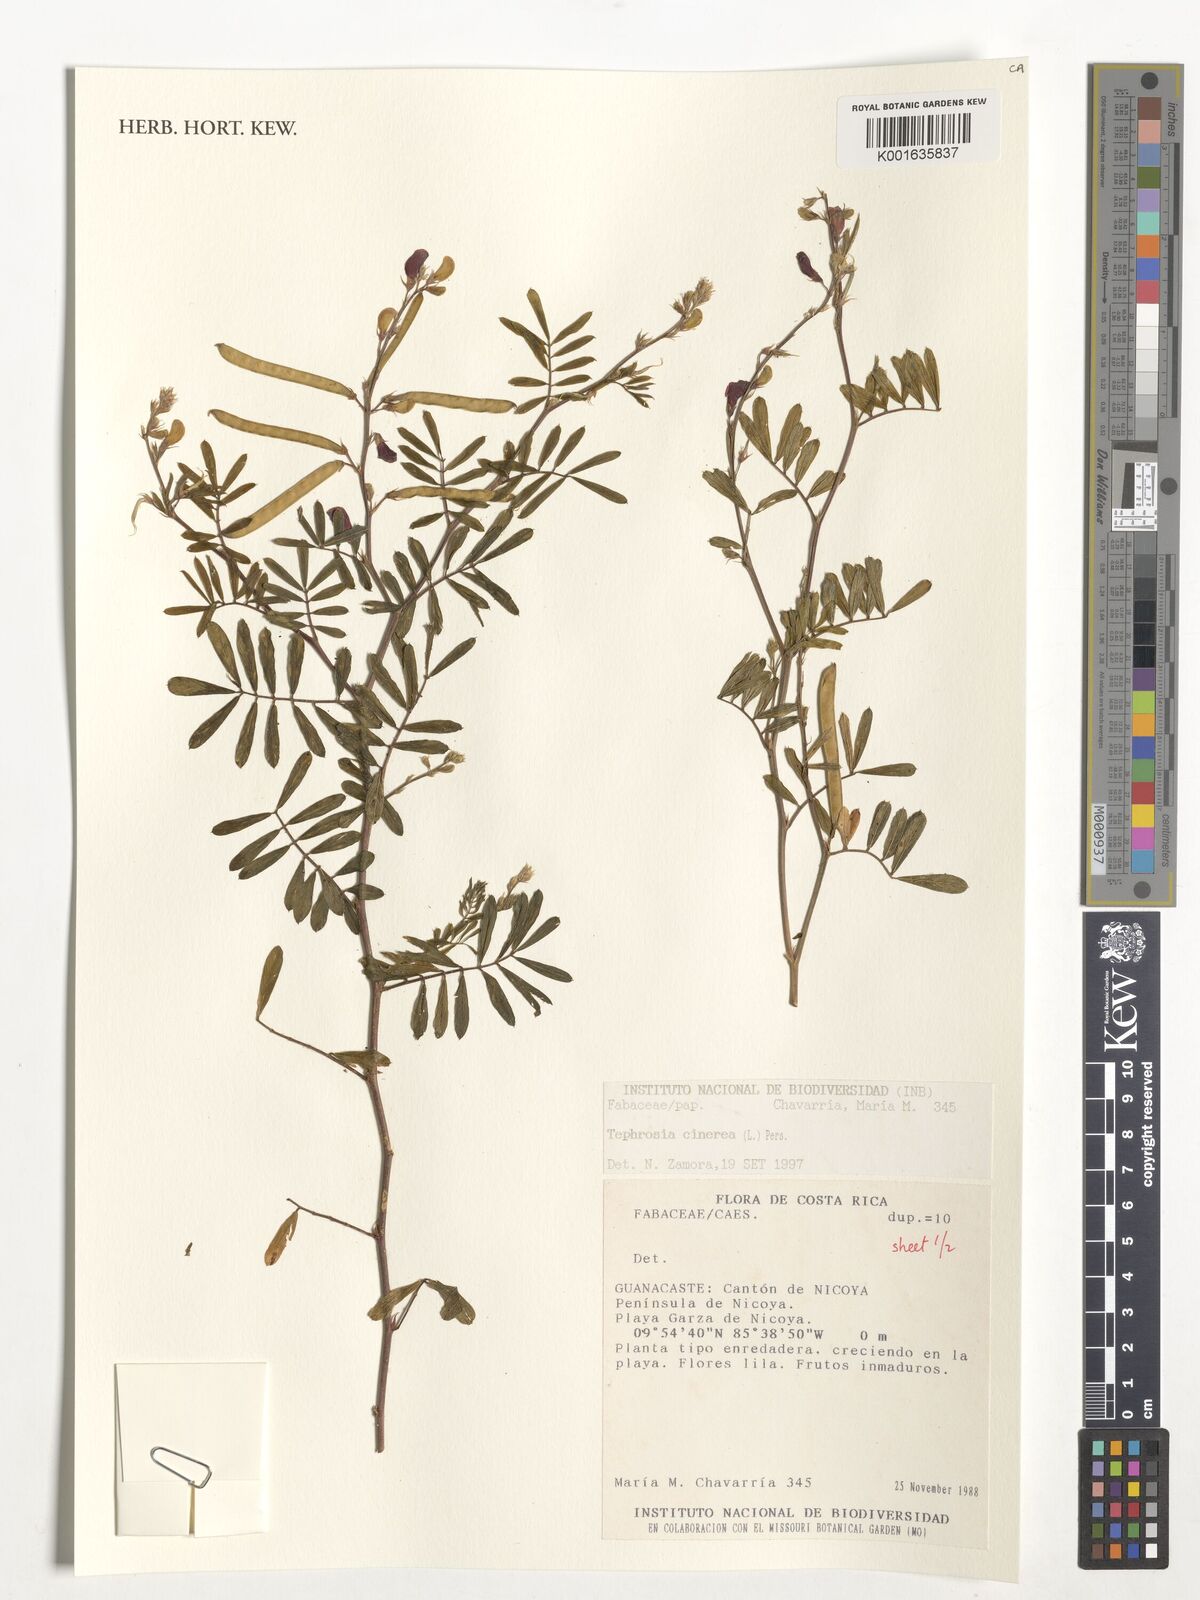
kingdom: Plantae
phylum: Tracheophyta
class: Magnoliopsida
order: Fabales
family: Fabaceae
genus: Tephrosia
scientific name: Tephrosia cinerea
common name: Ashen hoarypea
